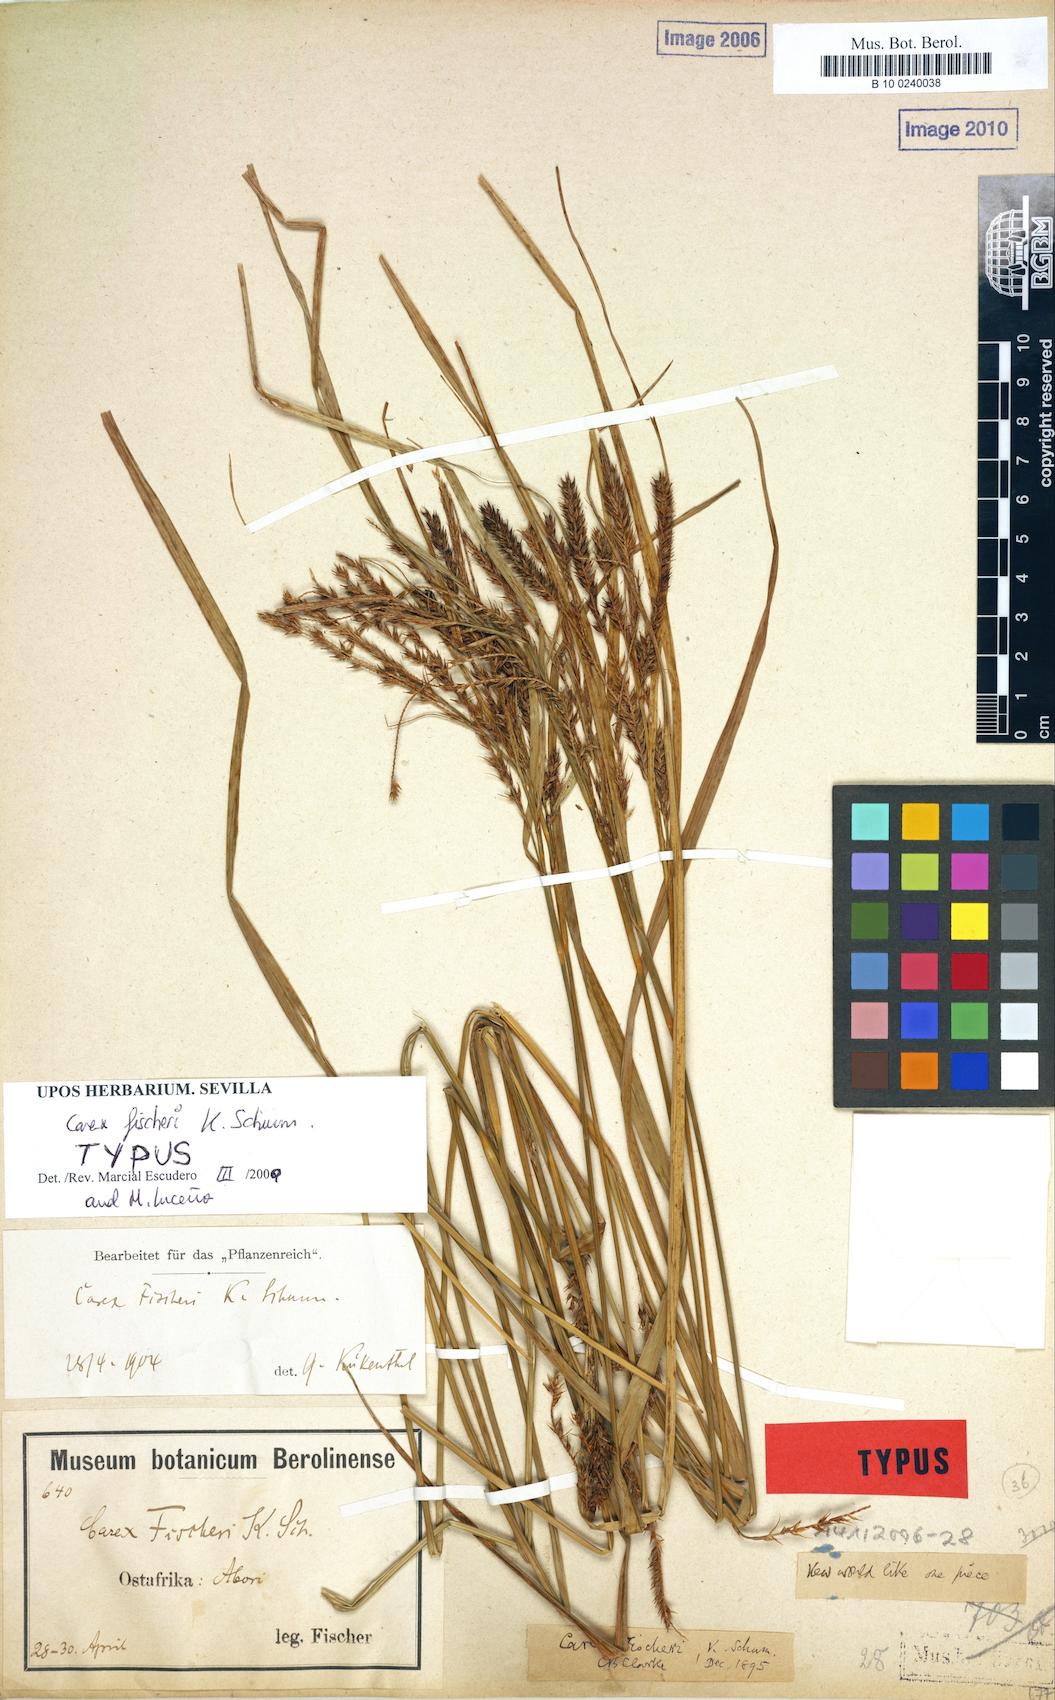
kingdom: Plantae
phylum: Tracheophyta
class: Liliopsida
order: Poales
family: Cyperaceae
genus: Carex
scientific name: Carex fischeri
